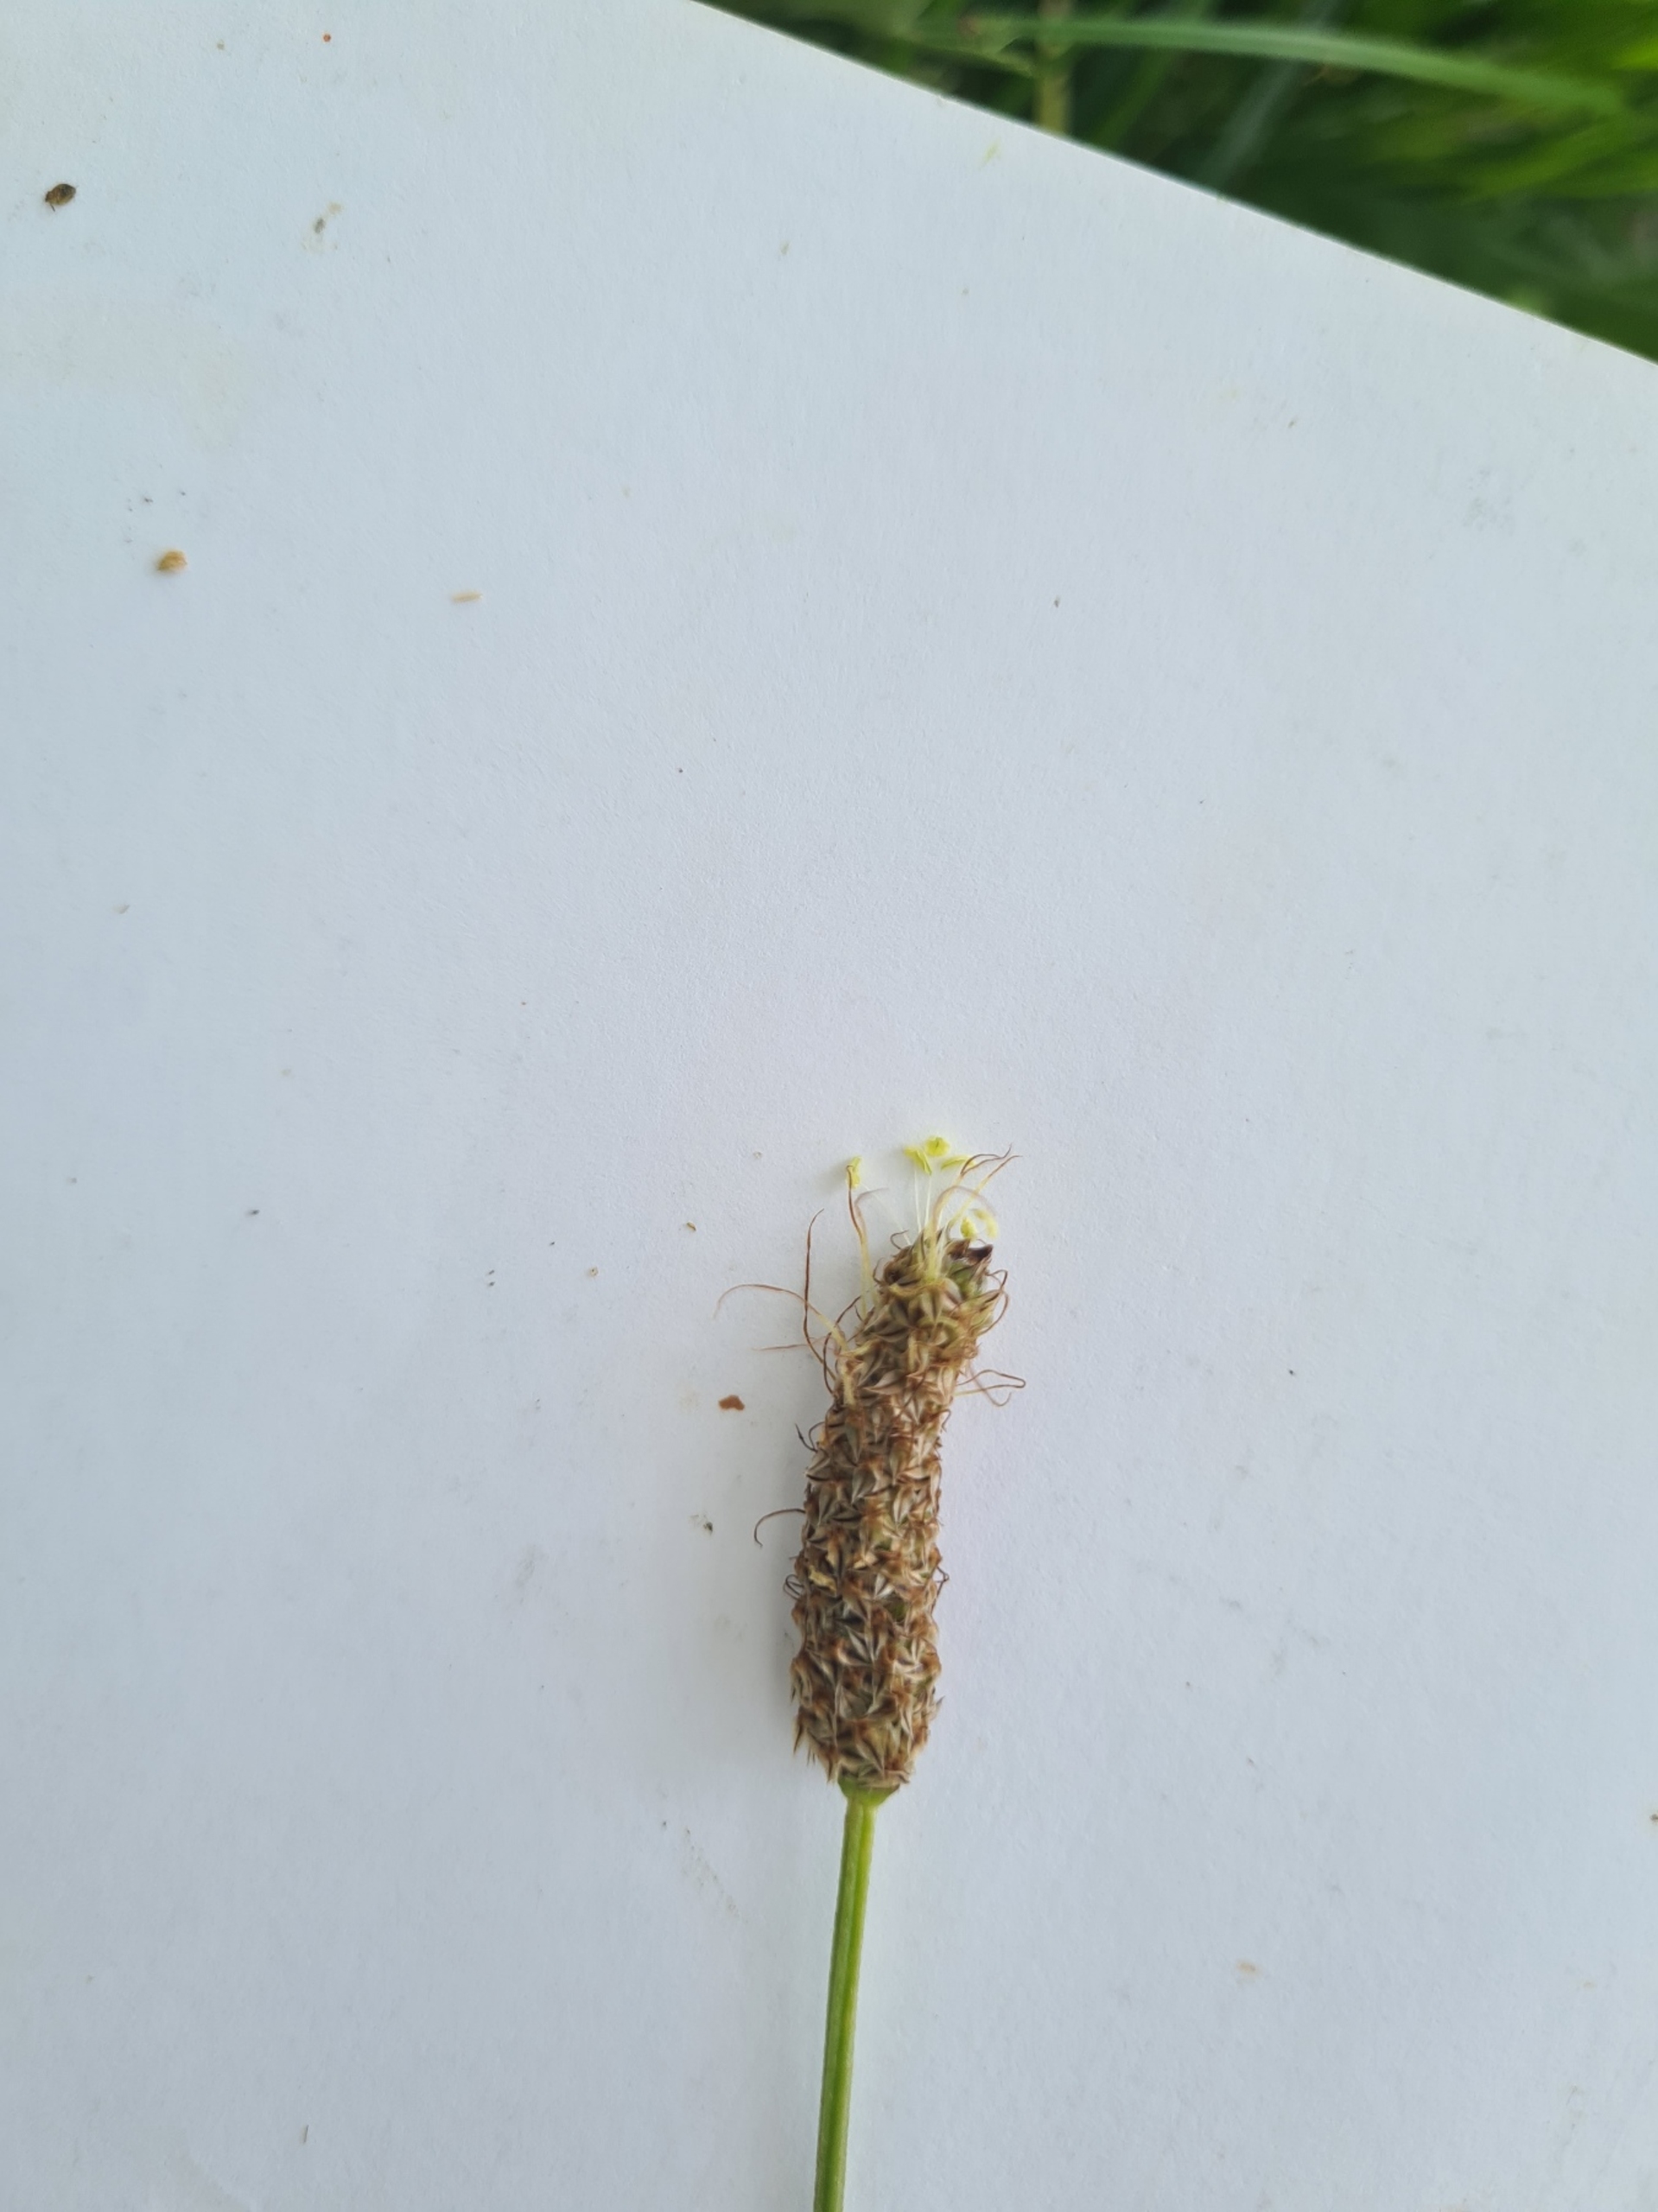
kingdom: Plantae
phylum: Tracheophyta
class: Magnoliopsida
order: Lamiales
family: Plantaginaceae
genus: Plantago
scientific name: Plantago lanceolata
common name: Lancet-vejbred
